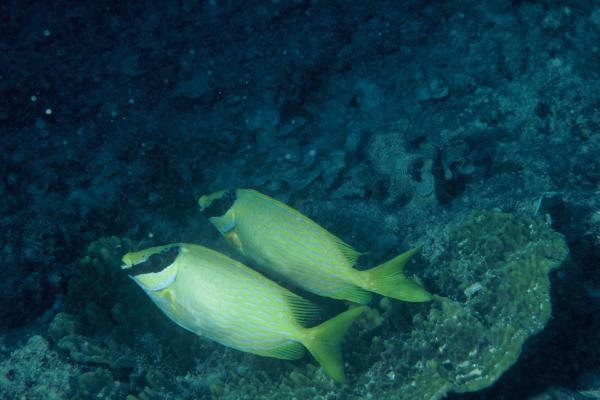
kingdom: Animalia
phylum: Chordata
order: Perciformes
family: Siganidae
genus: Siganus
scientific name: Siganus puellus
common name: Masked rabbitfish
